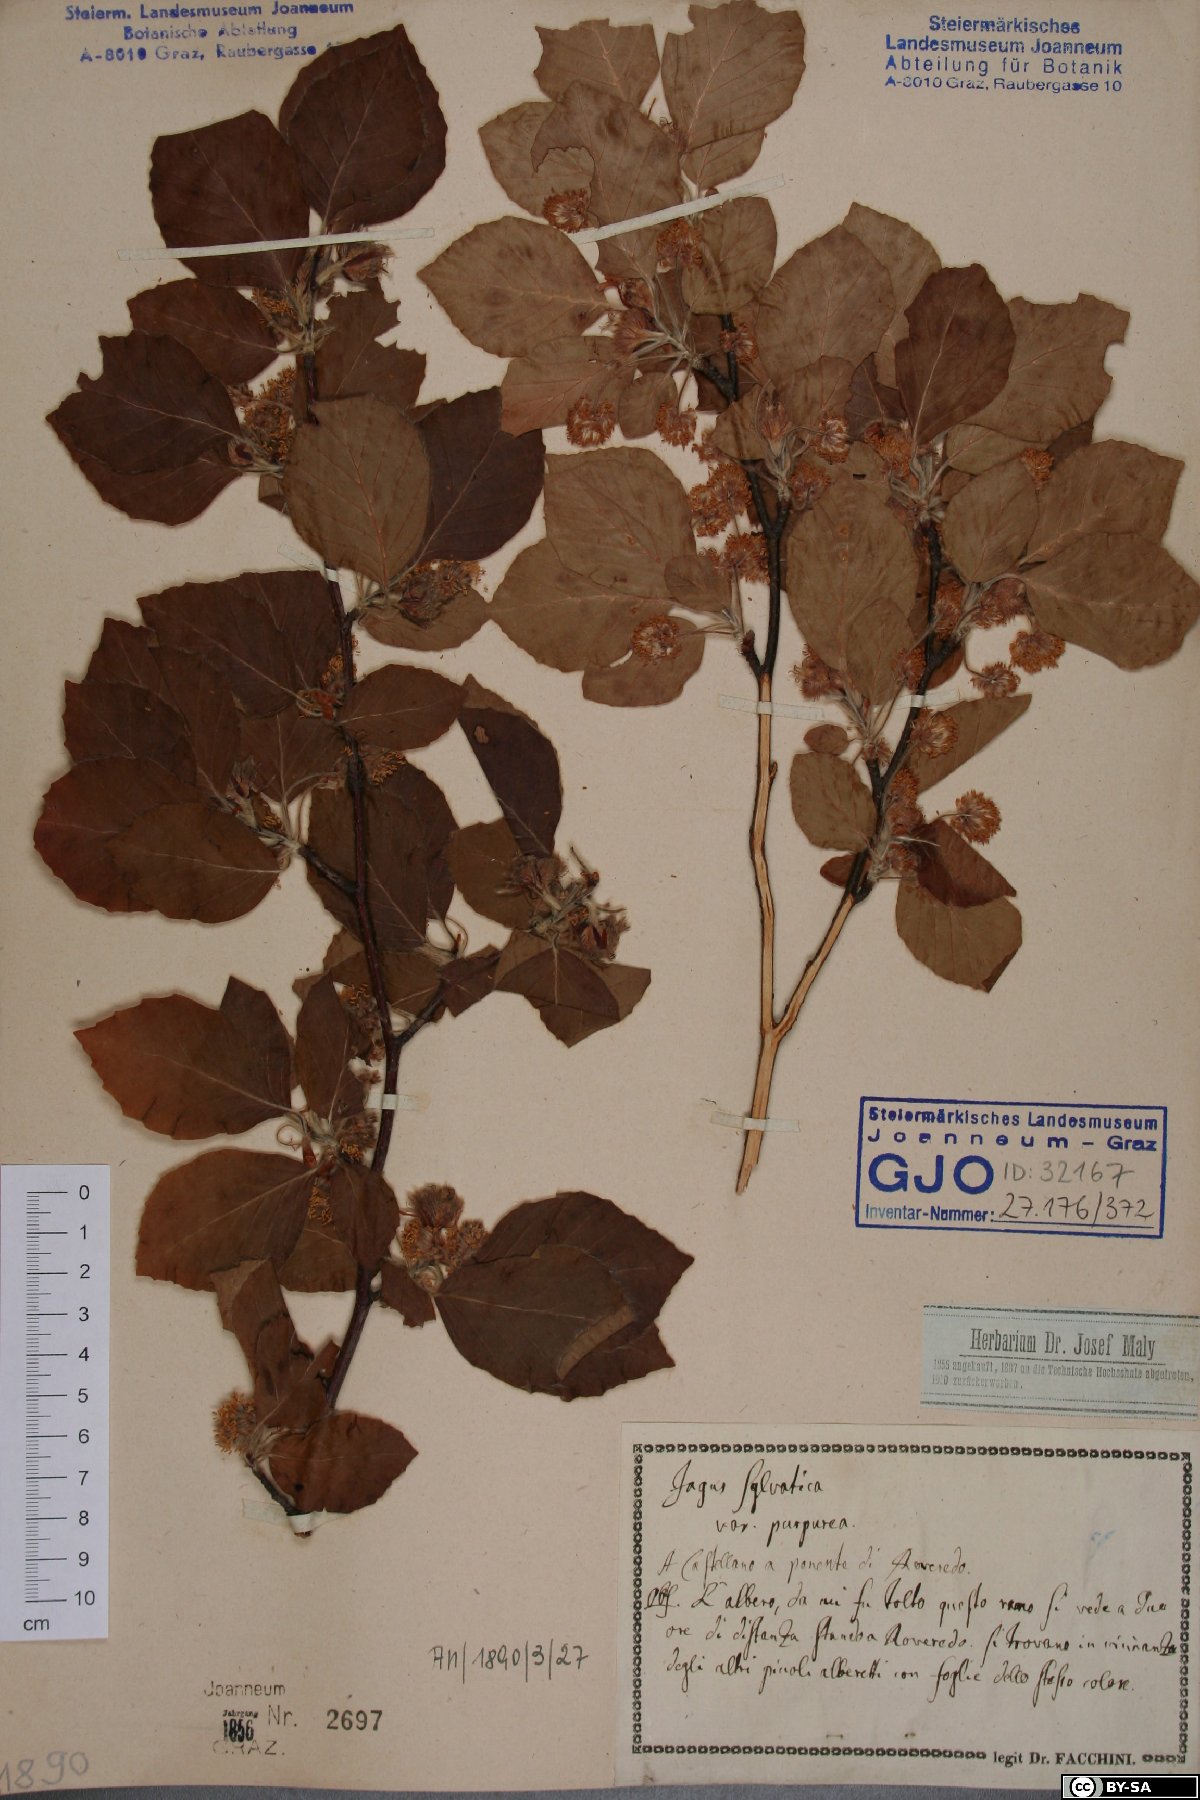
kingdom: Plantae
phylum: Tracheophyta
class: Magnoliopsida
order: Fagales
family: Fagaceae
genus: Fagus
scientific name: Fagus sylvatica
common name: Beech
